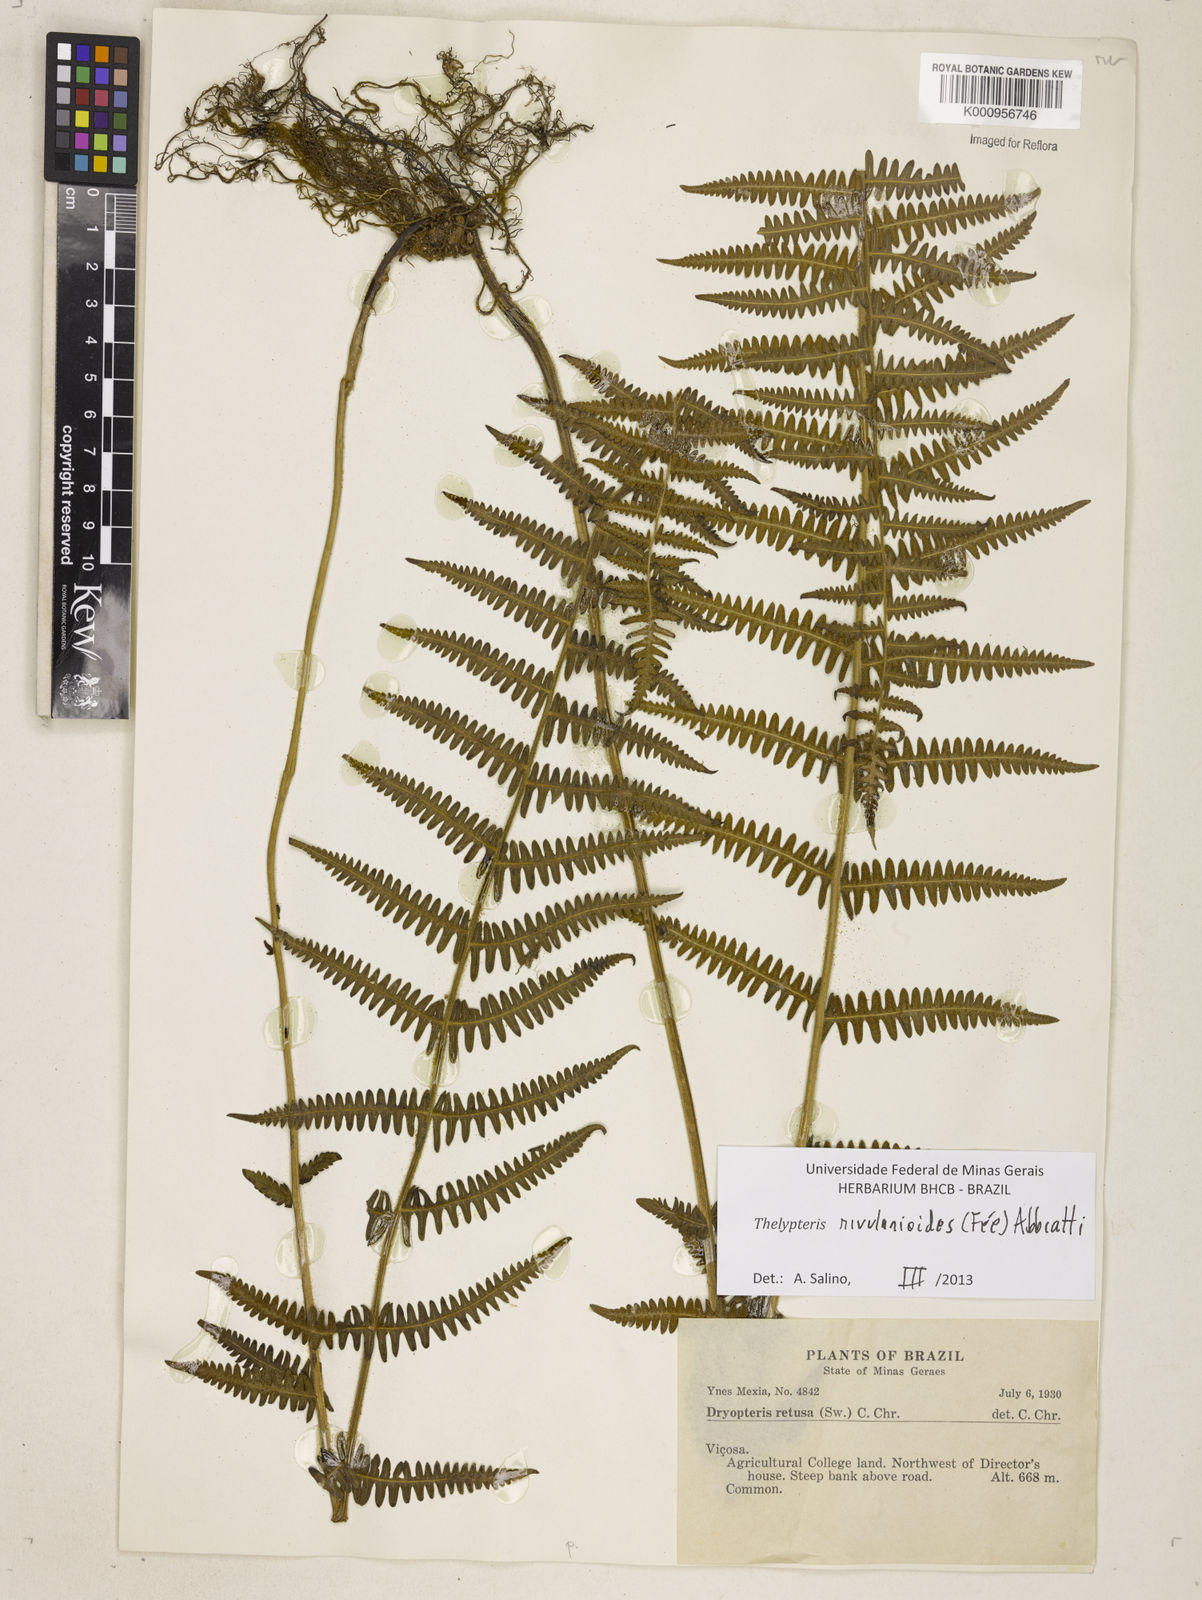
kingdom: Plantae
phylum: Tracheophyta
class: Polypodiopsida
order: Polypodiales
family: Thelypteridaceae
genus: Amauropelta
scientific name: Amauropelta rivularioides
